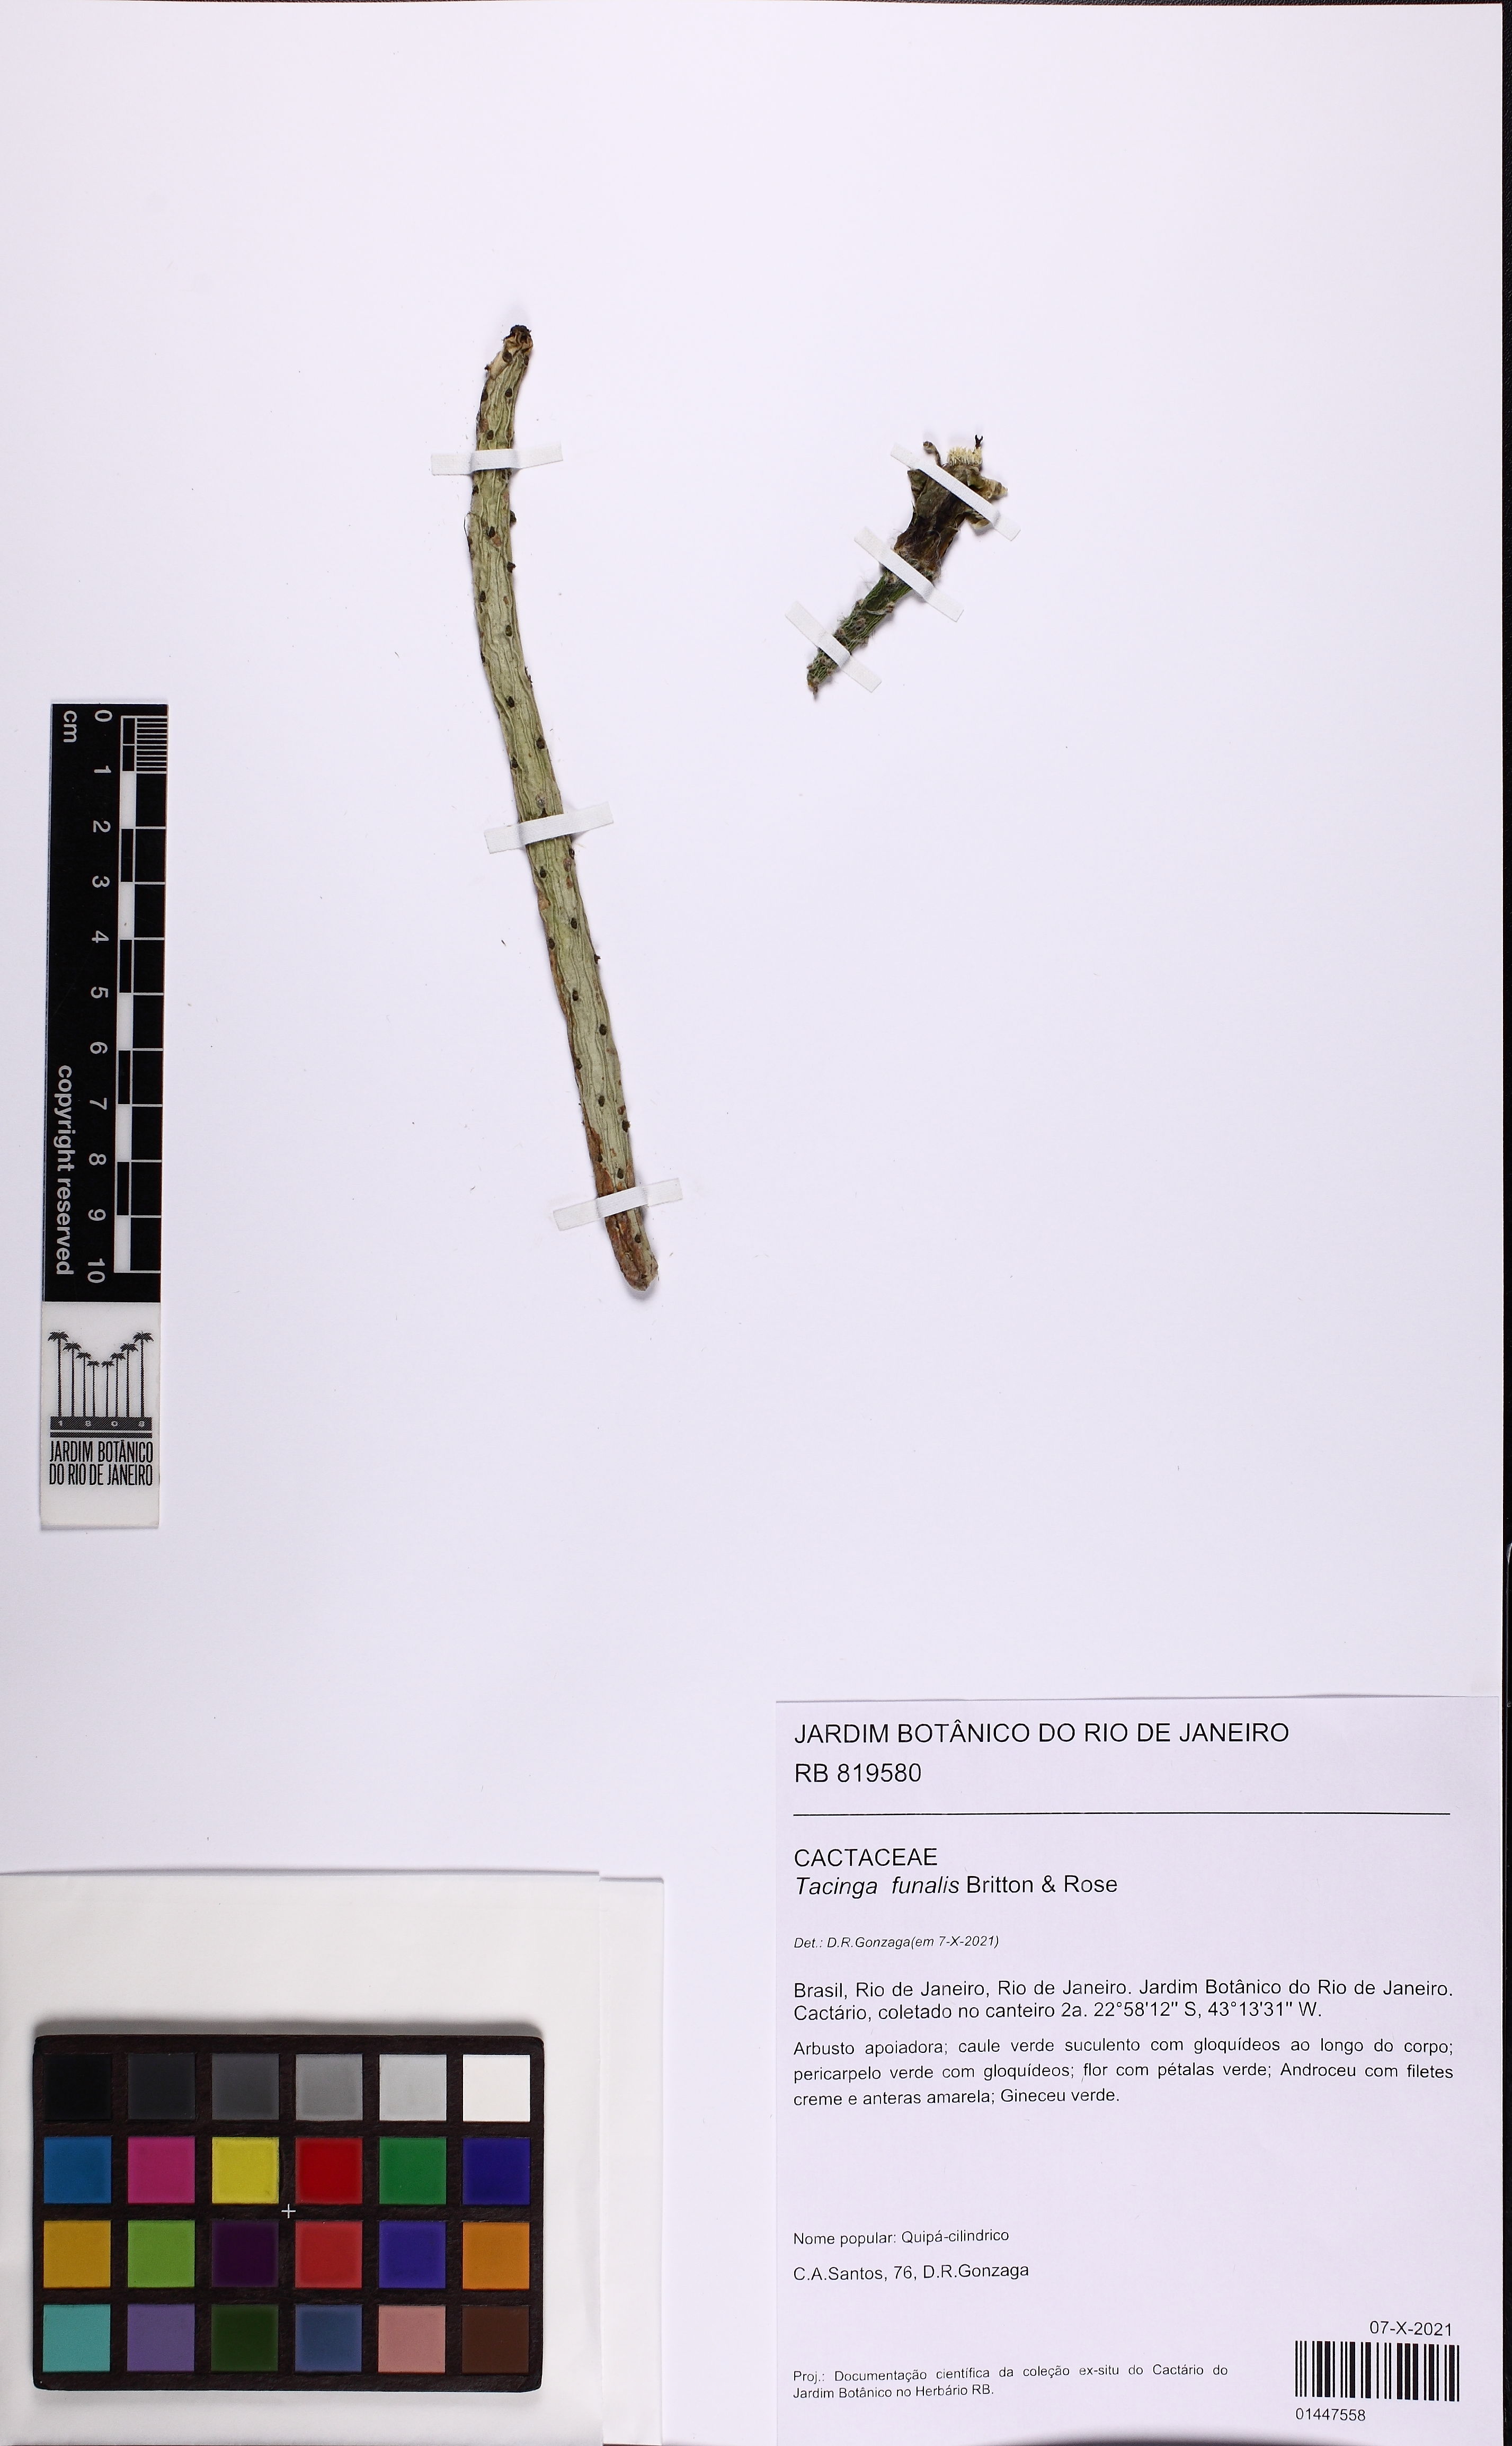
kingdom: Plantae
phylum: Tracheophyta
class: Magnoliopsida
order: Caryophyllales
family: Cactaceae
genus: Tacinga
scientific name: Tacinga funalis
